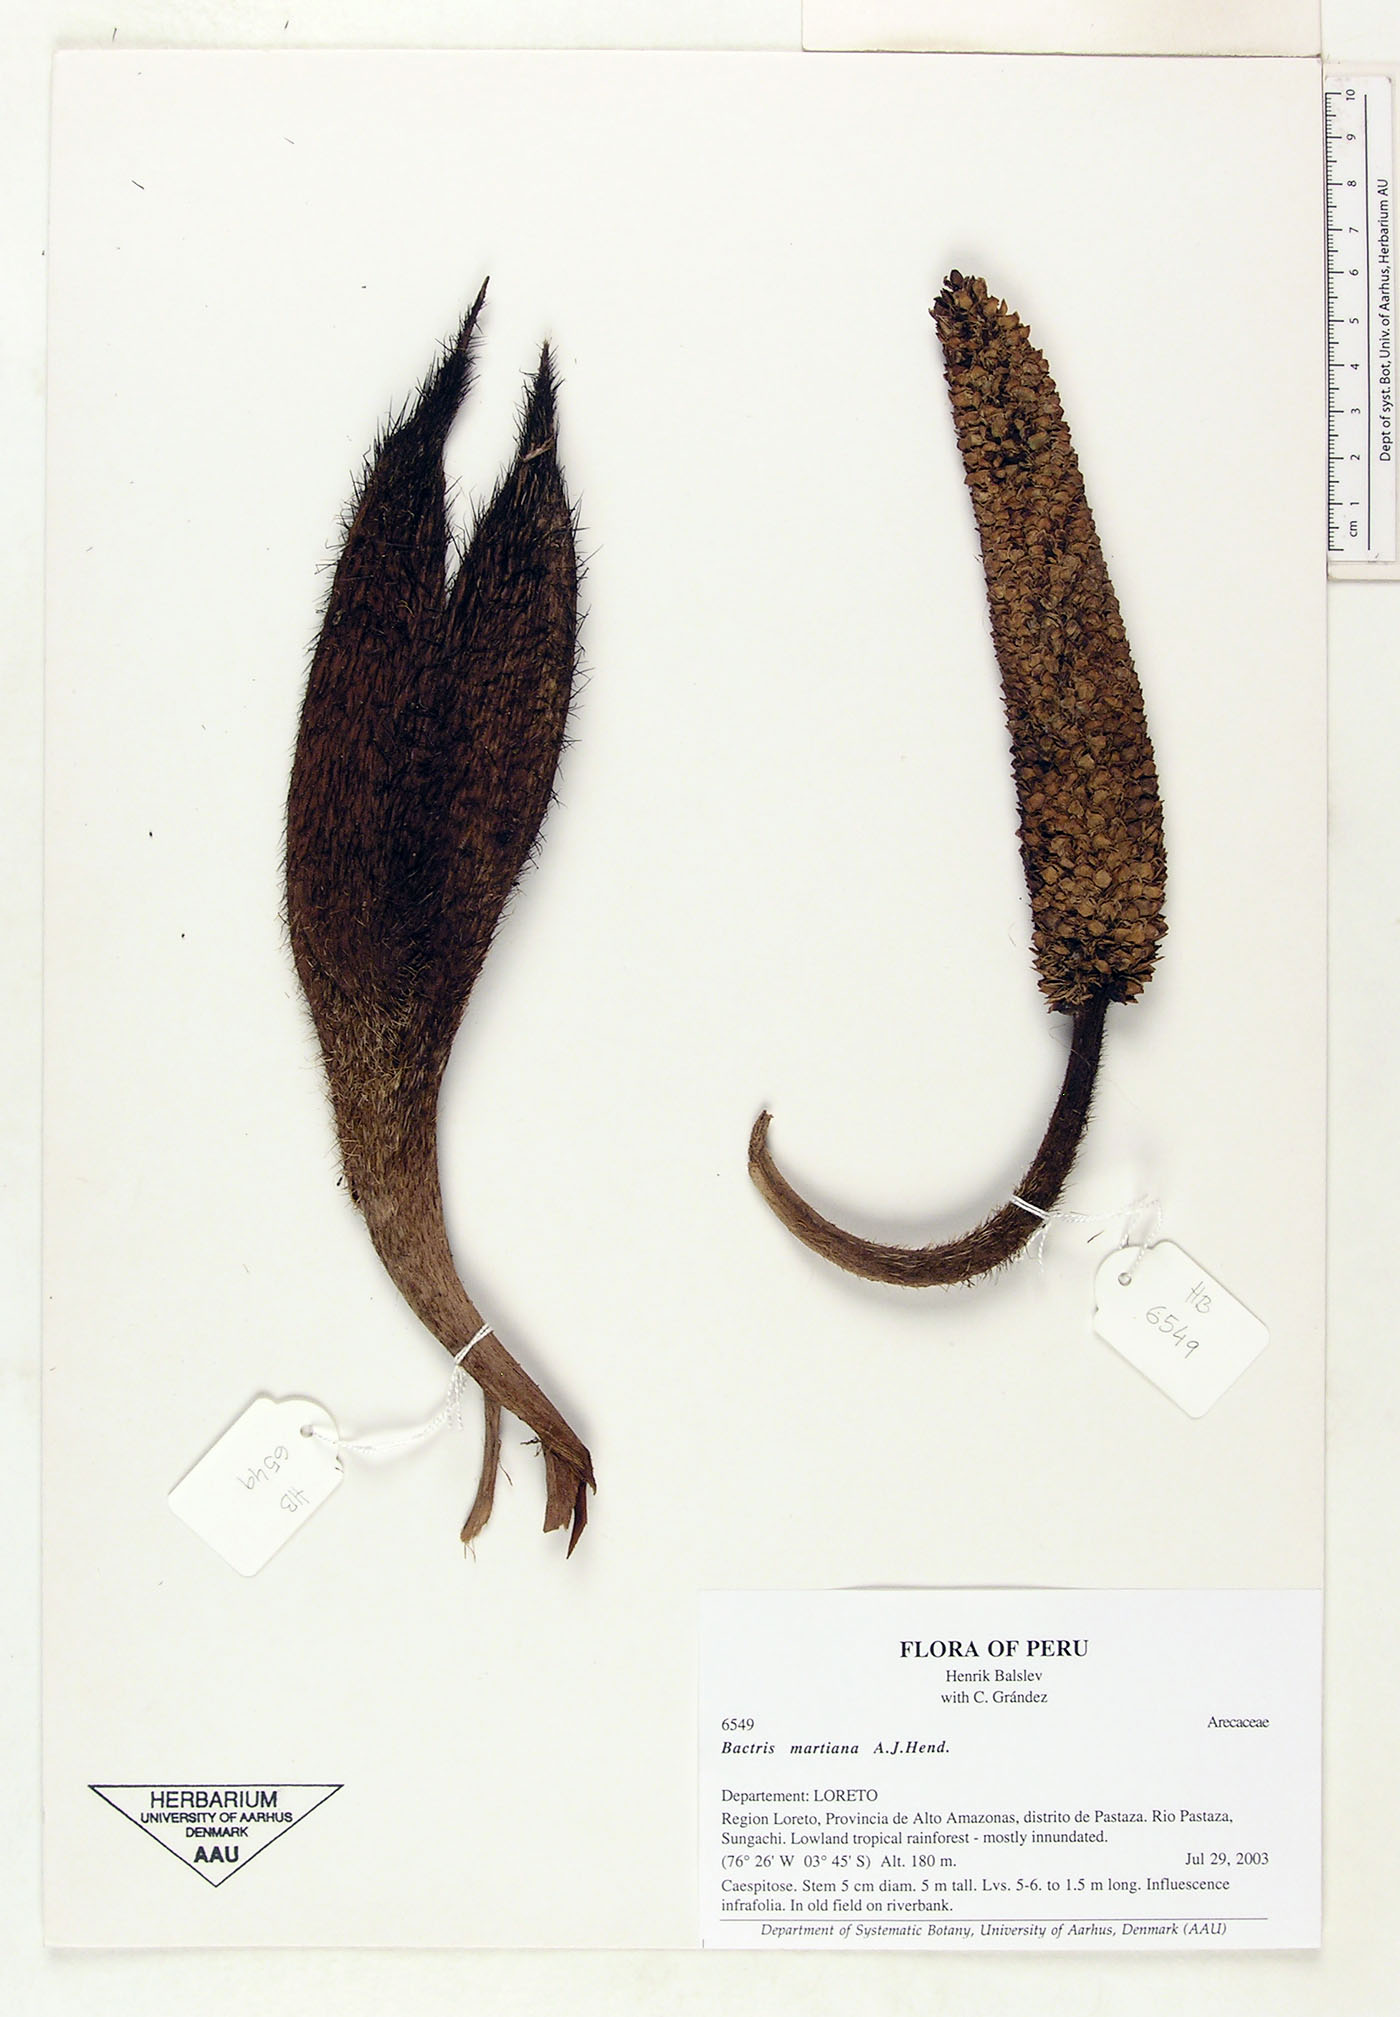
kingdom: Plantae
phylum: Tracheophyta
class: Liliopsida
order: Arecales
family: Arecaceae
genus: Bactris
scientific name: Bactris martiana
